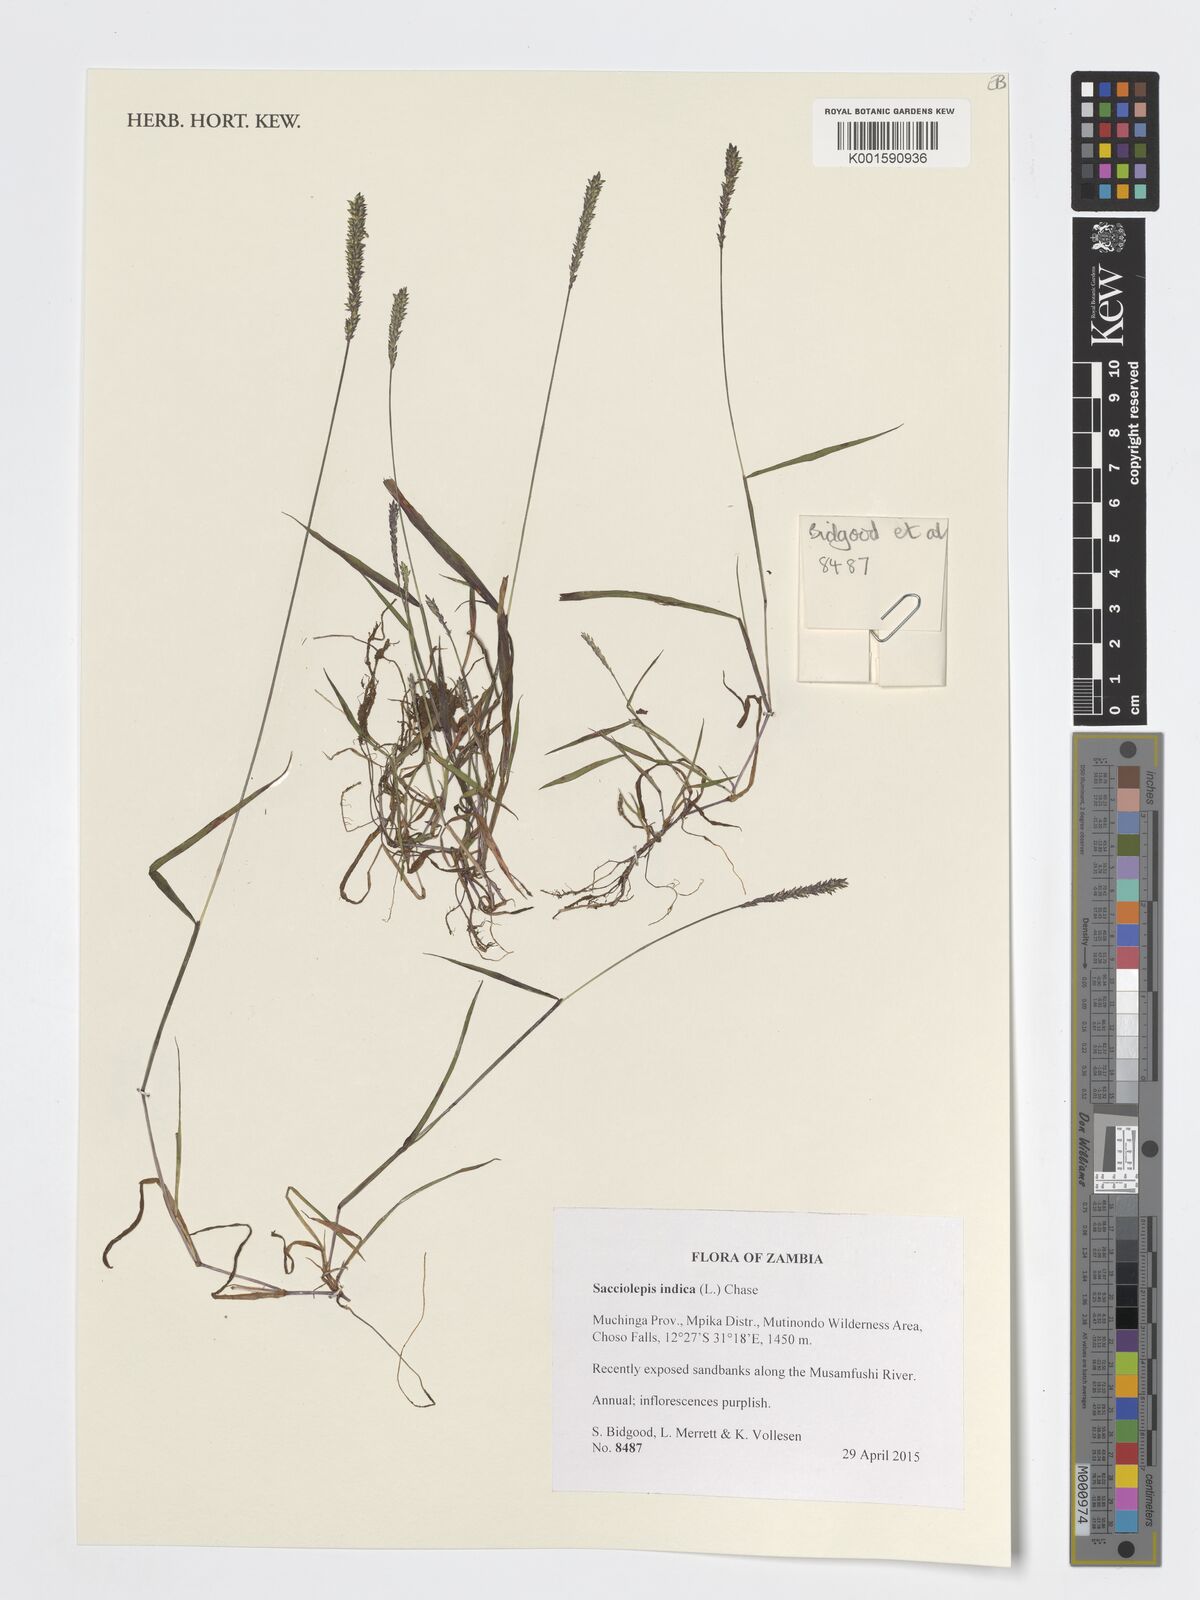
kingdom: Plantae
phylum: Tracheophyta
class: Liliopsida
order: Poales
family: Poaceae
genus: Sacciolepis
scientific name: Sacciolepis indica
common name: Glenwoodgrass
